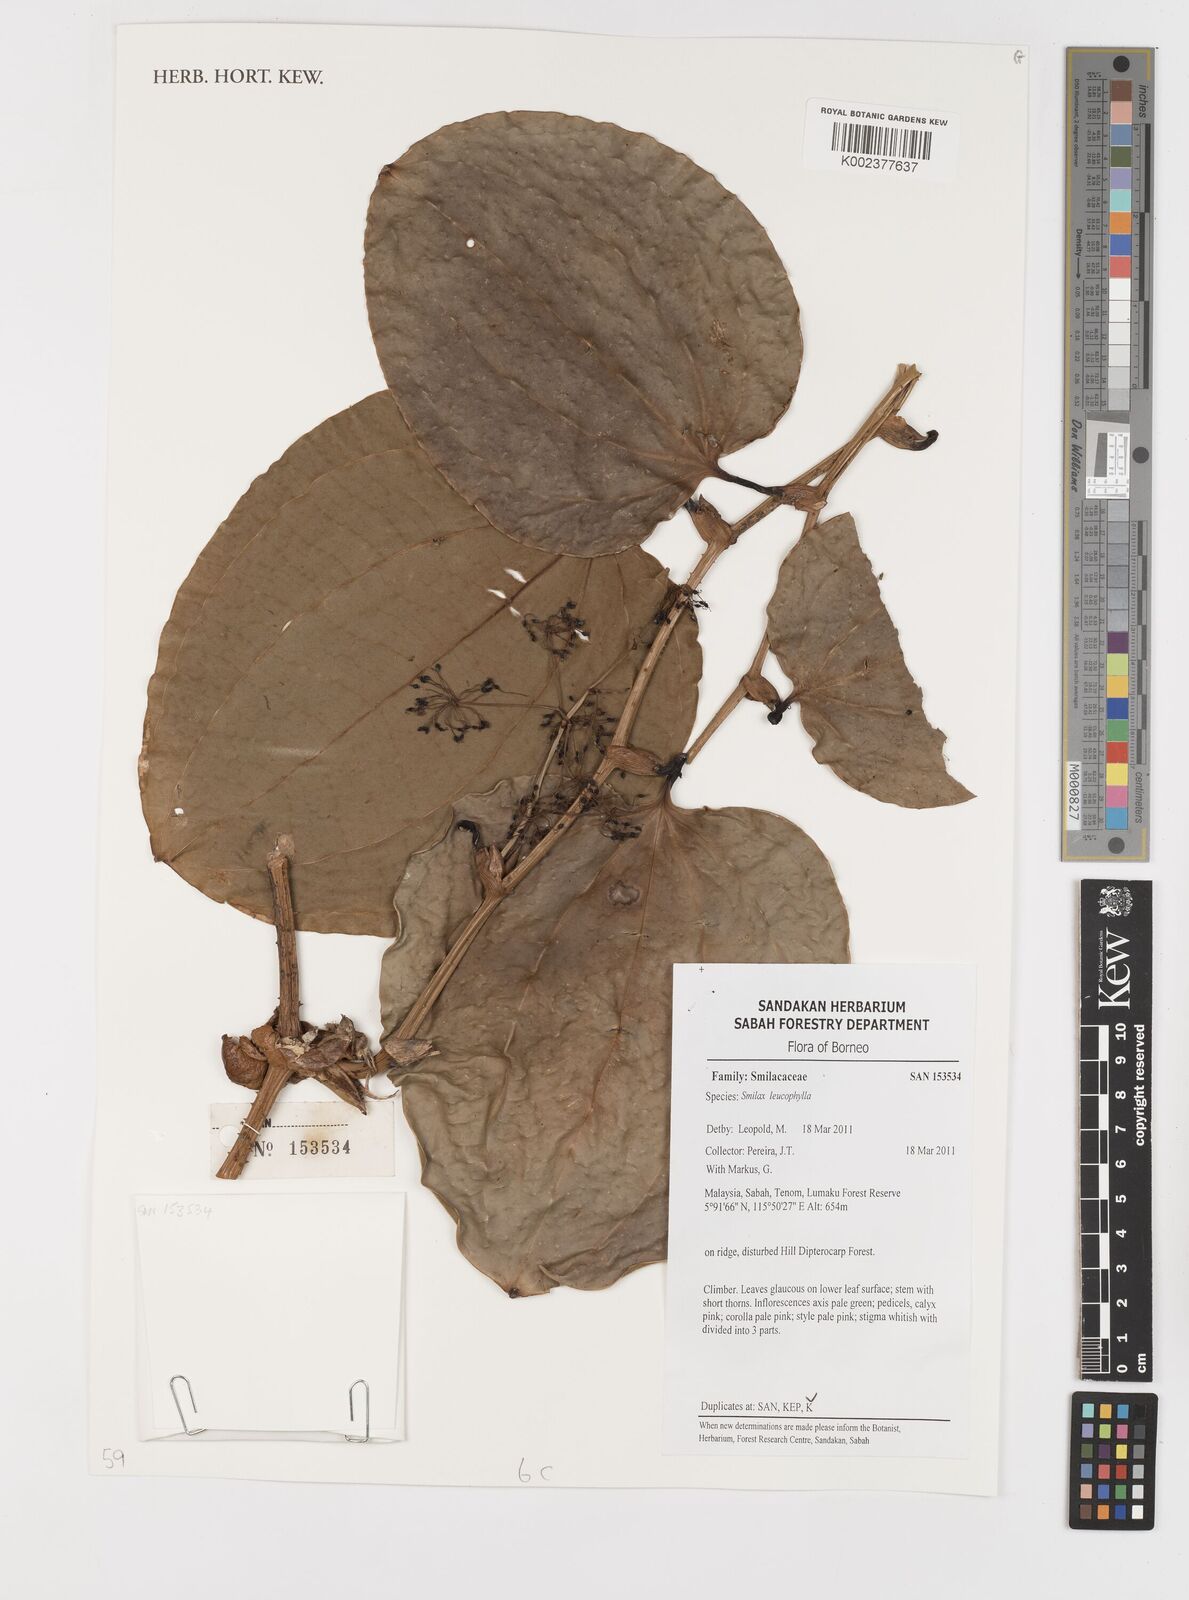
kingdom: Plantae
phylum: Tracheophyta
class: Liliopsida
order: Liliales
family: Smilacaceae
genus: Smilax
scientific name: Smilax leucophylla
